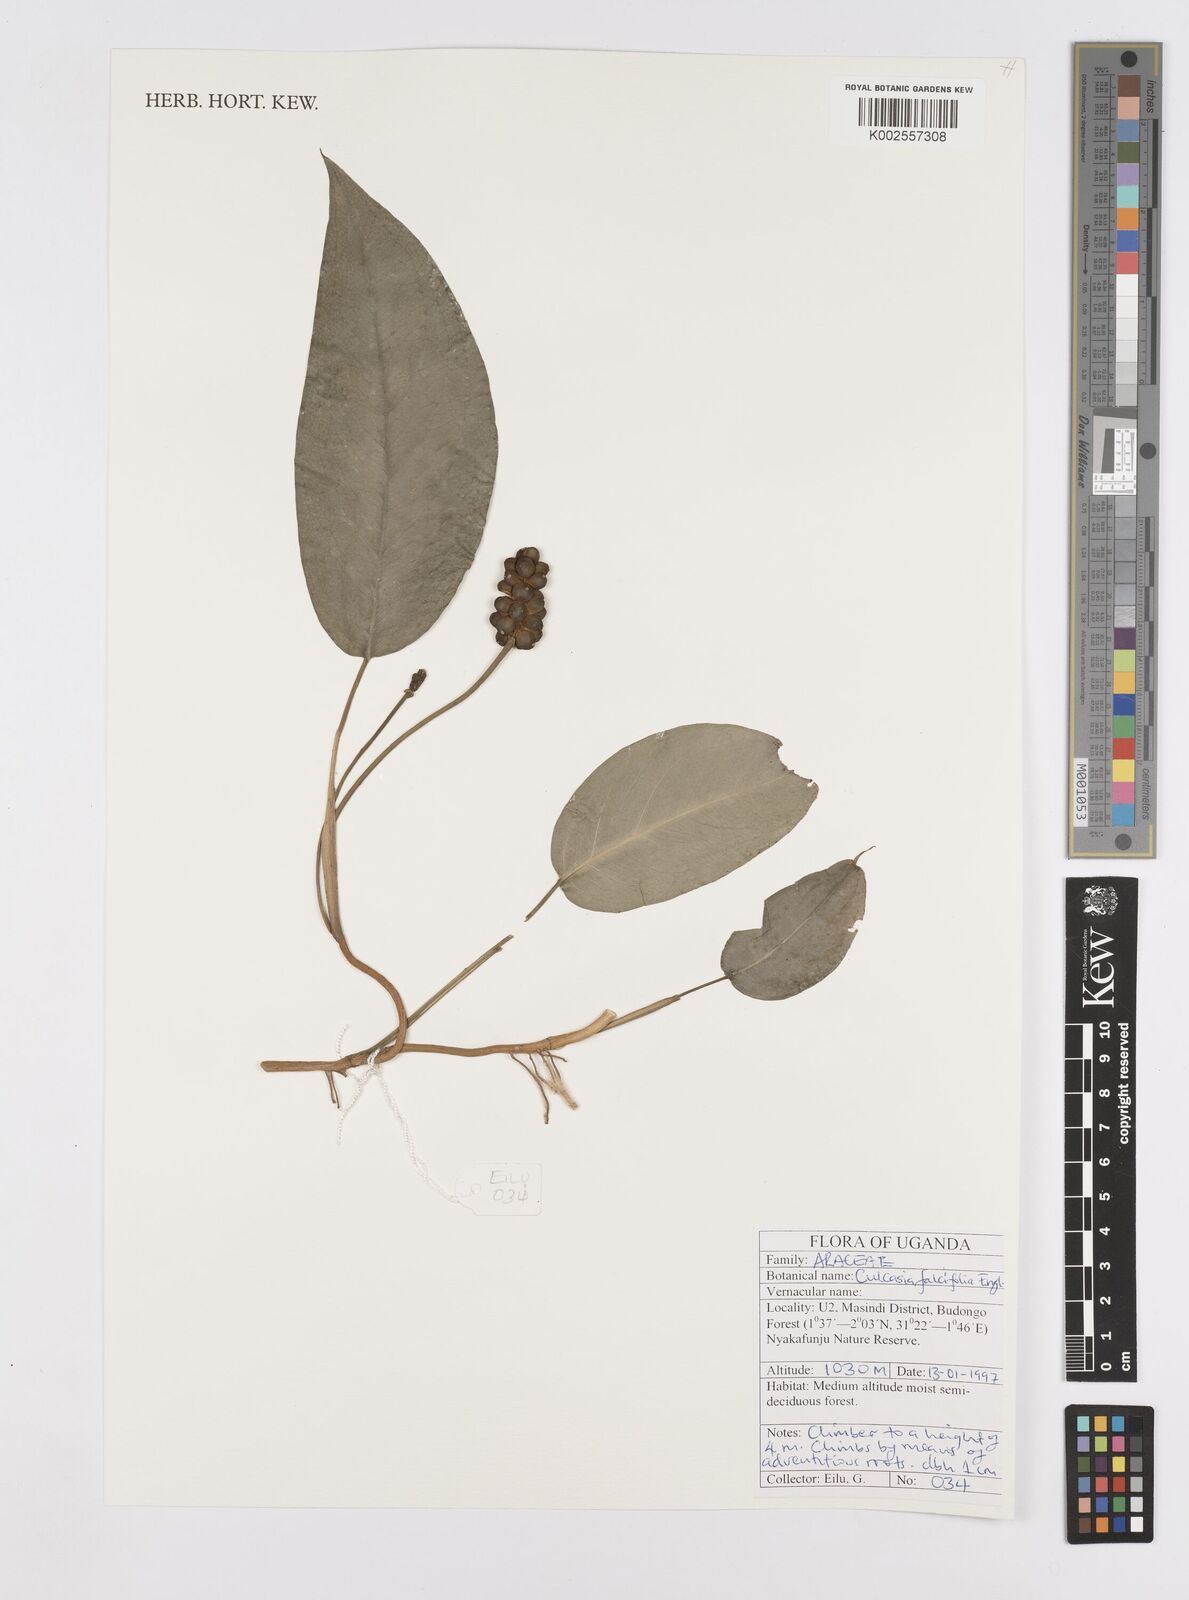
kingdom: Plantae
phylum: Tracheophyta
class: Liliopsida
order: Alismatales
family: Araceae
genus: Culcasia
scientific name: Culcasia falcifolia
